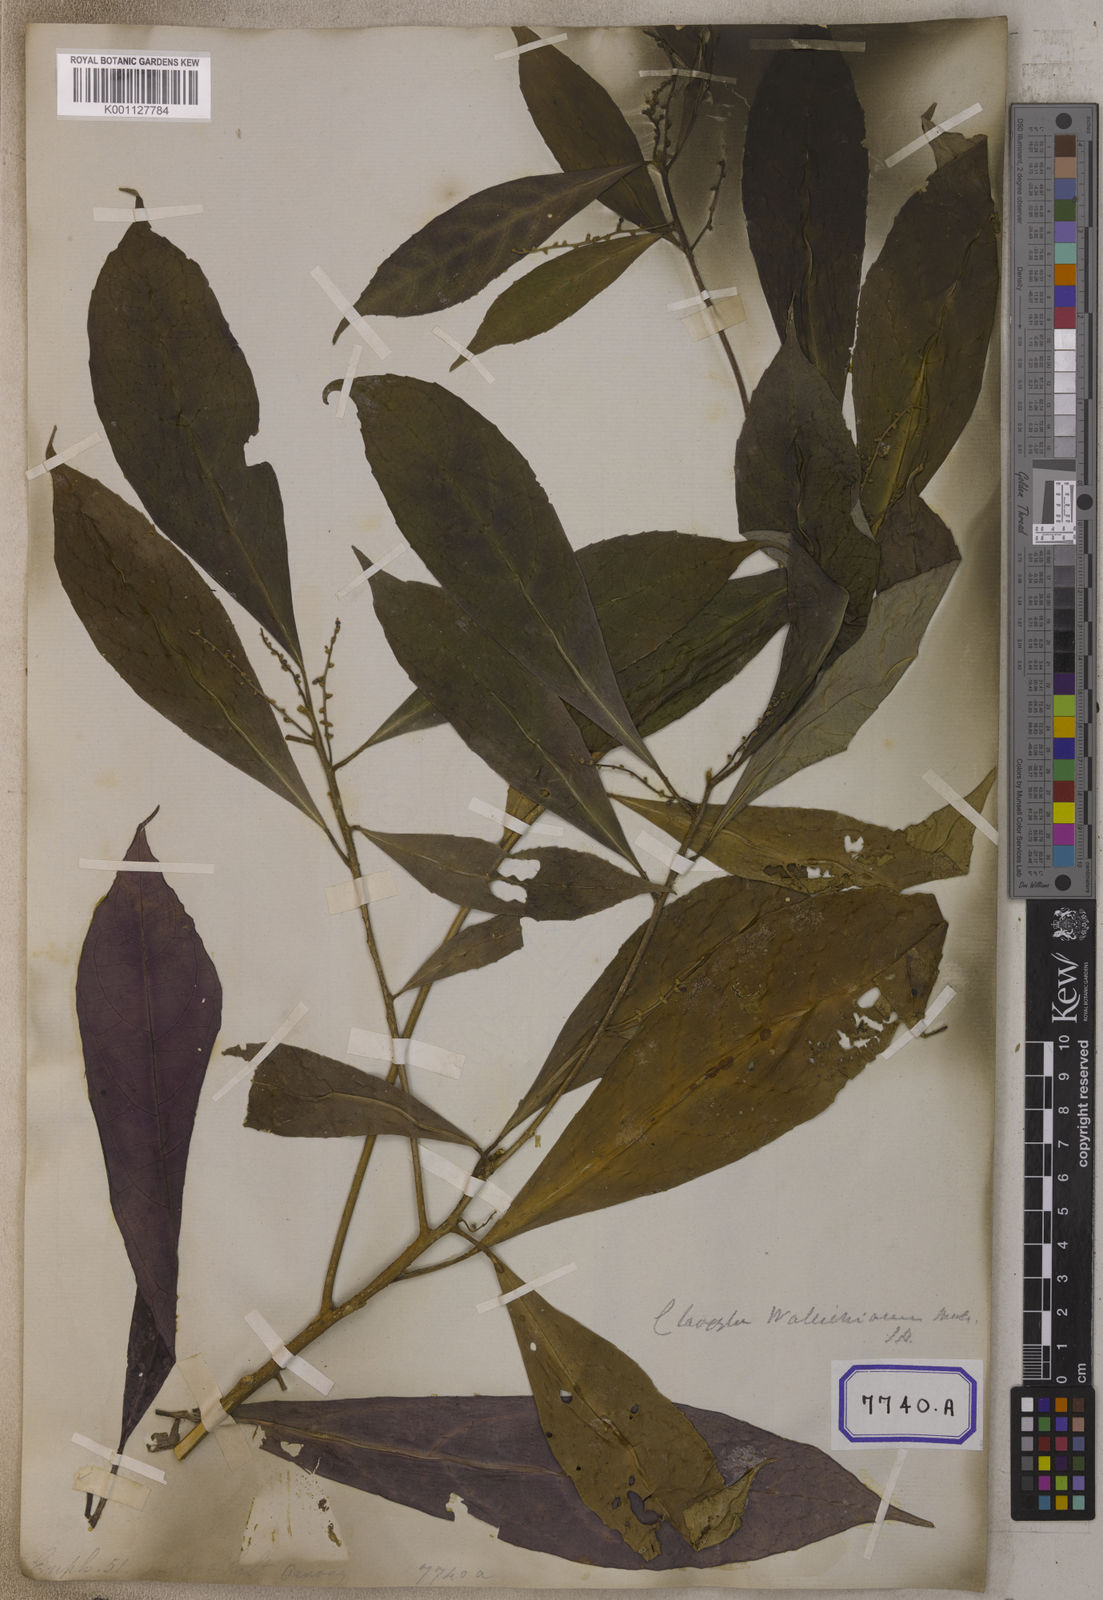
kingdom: Plantae
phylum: Tracheophyta
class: Magnoliopsida
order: Malpighiales
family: Euphorbiaceae
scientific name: Euphorbiaceae
